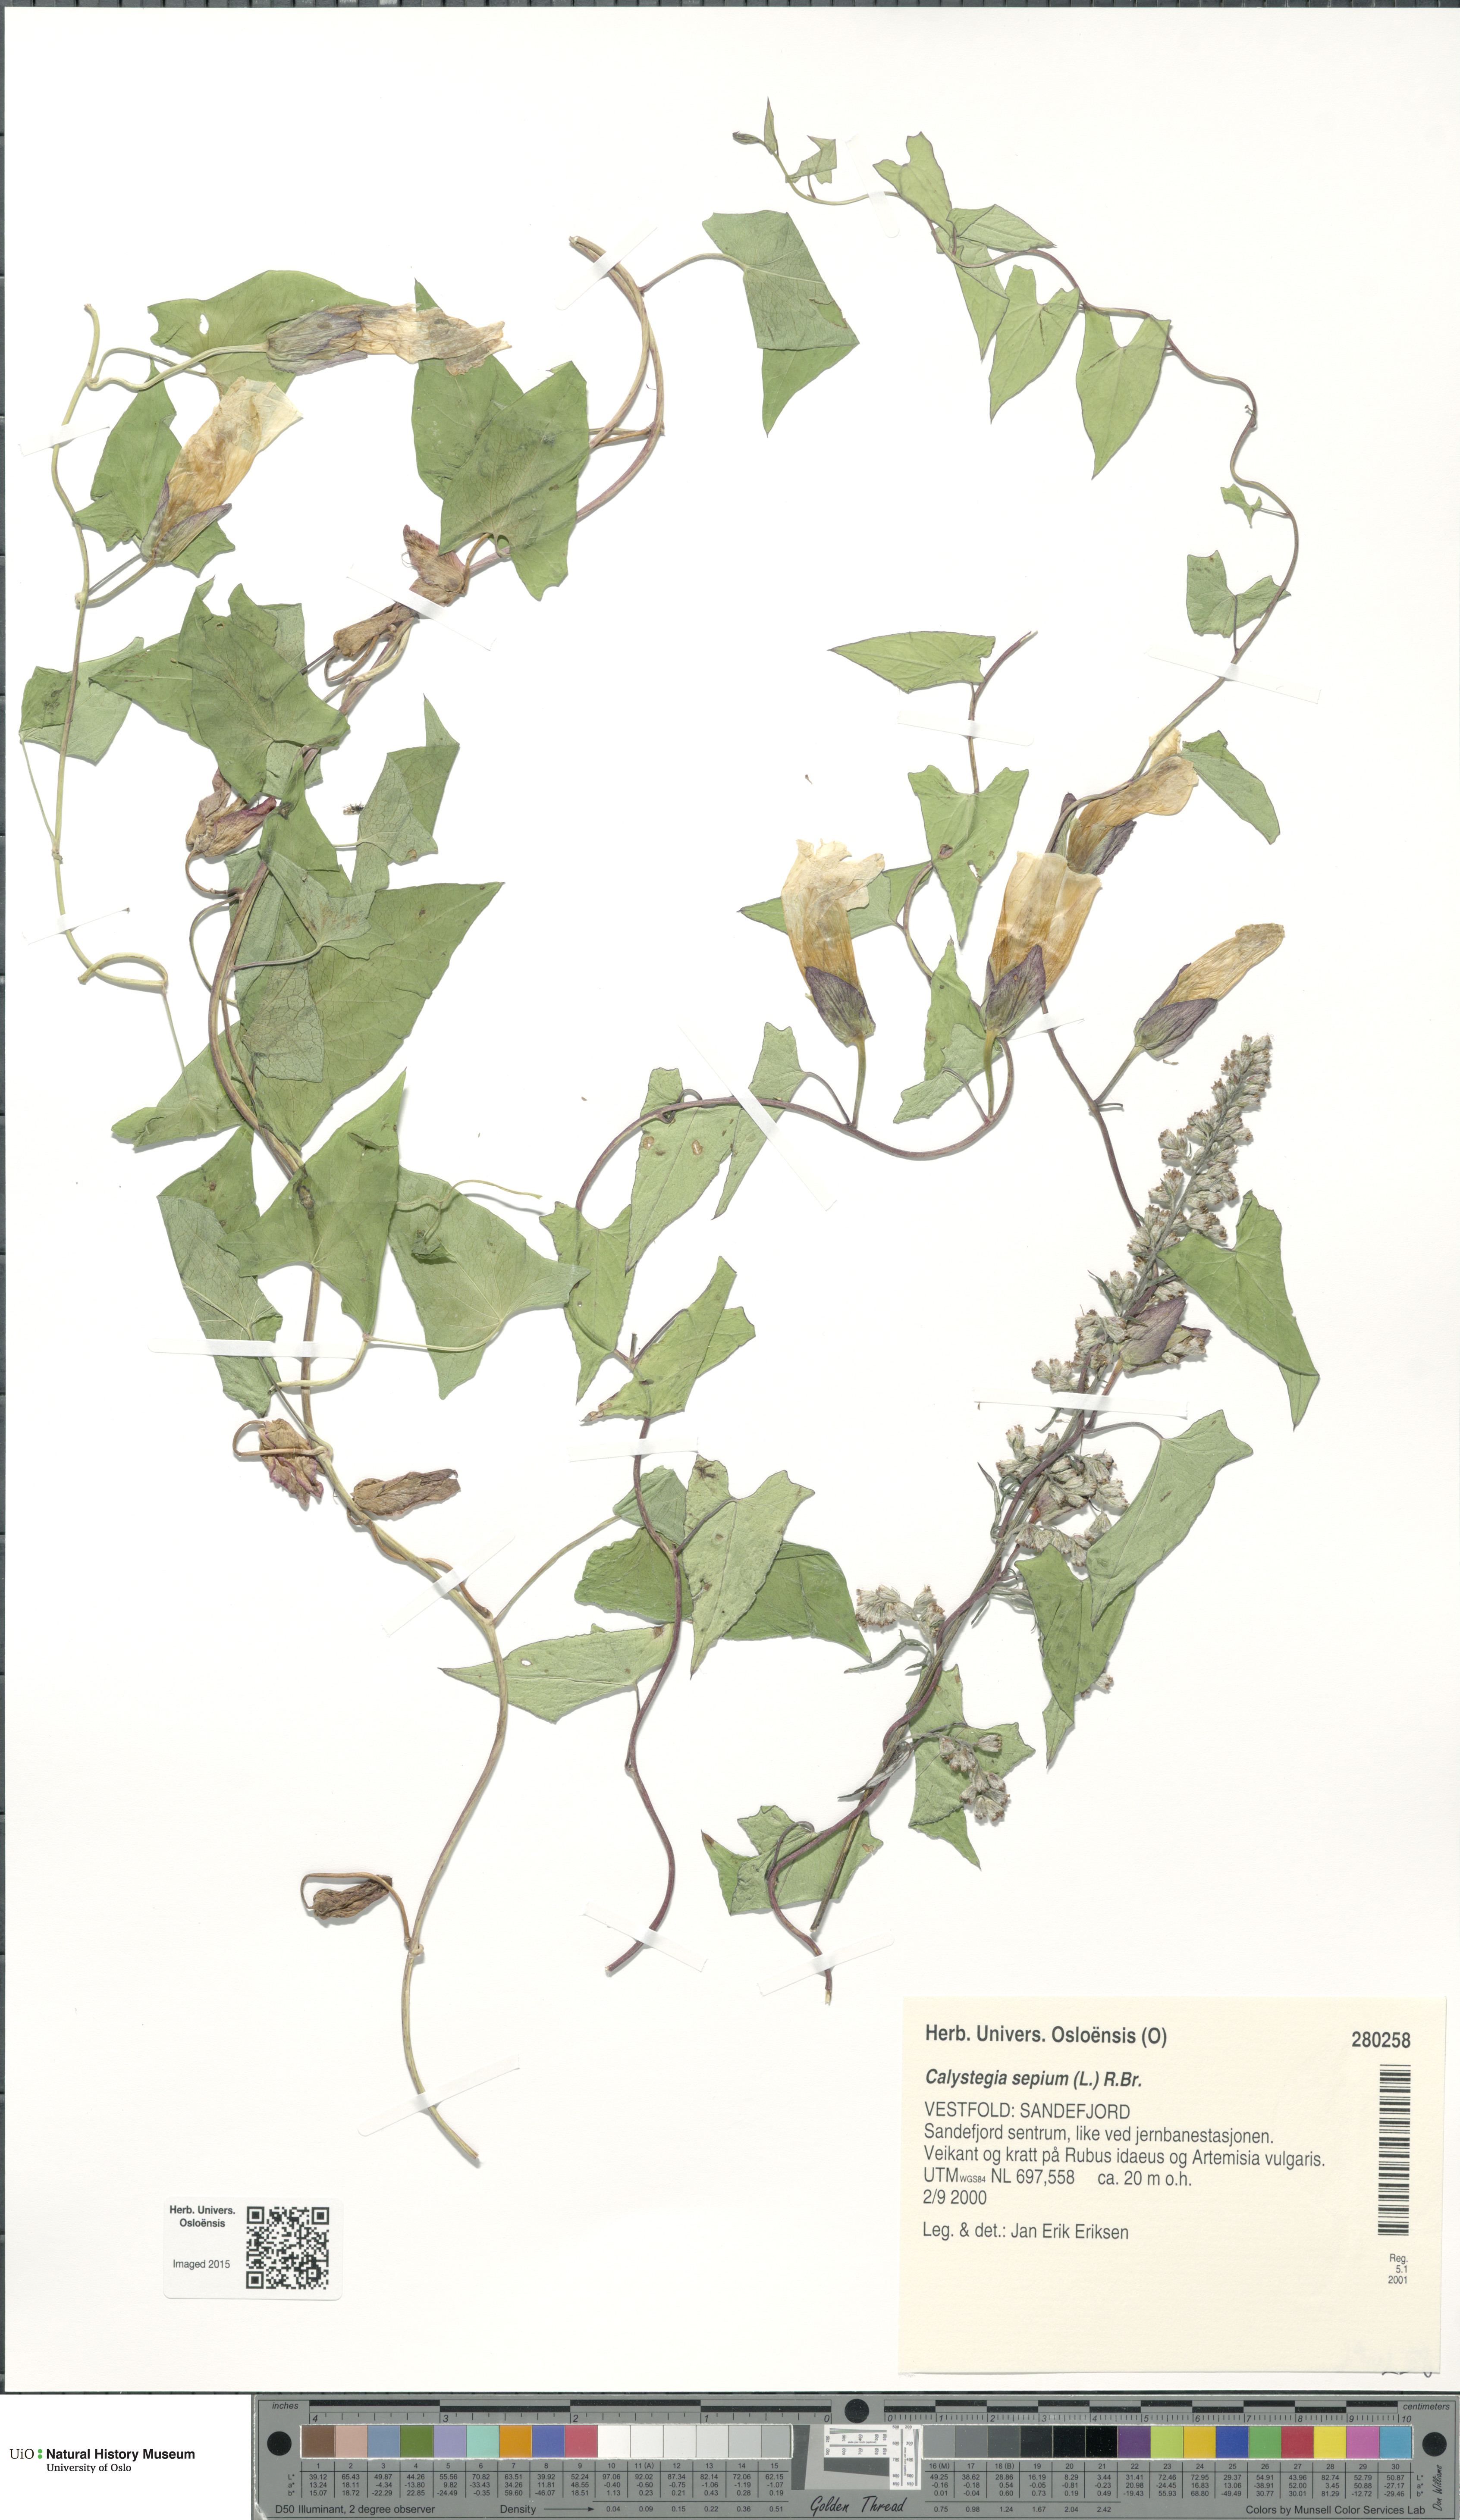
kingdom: Plantae
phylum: Tracheophyta
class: Magnoliopsida
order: Solanales
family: Convolvulaceae
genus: Calystegia
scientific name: Calystegia sepium
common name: Hedge bindweed
